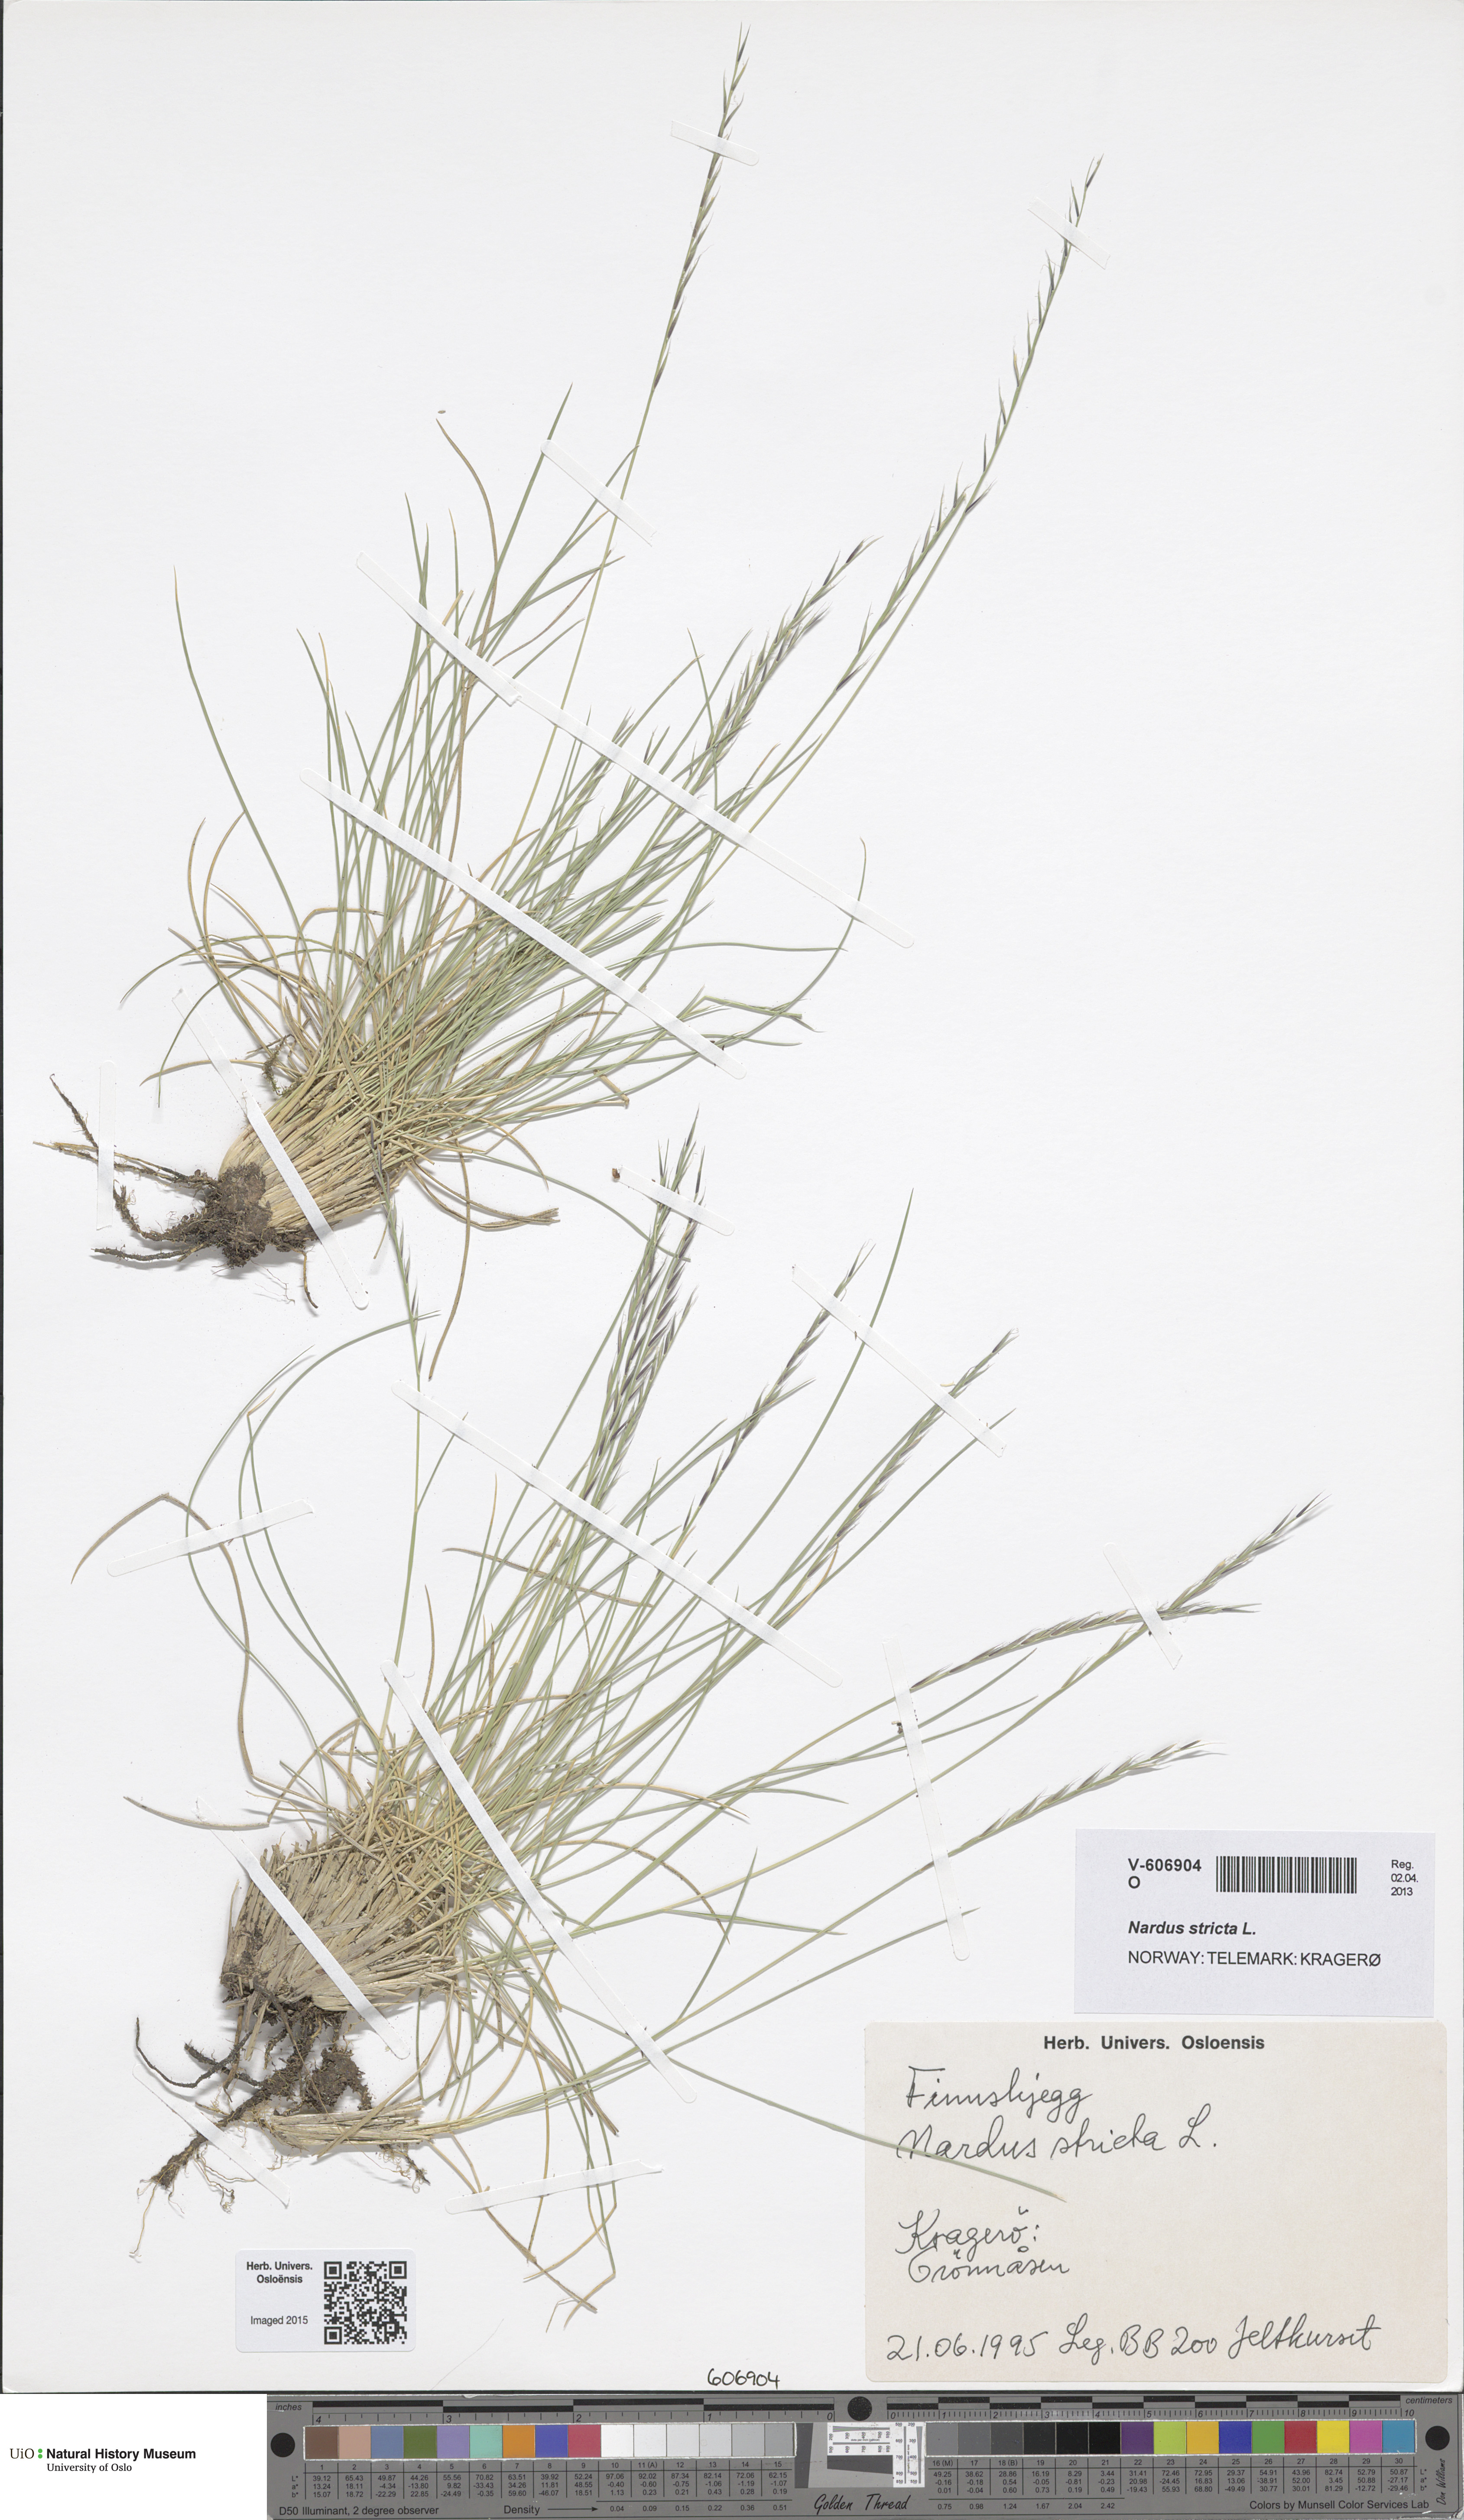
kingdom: Plantae
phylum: Tracheophyta
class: Liliopsida
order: Poales
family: Poaceae
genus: Nardus
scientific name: Nardus stricta
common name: Mat-grass
